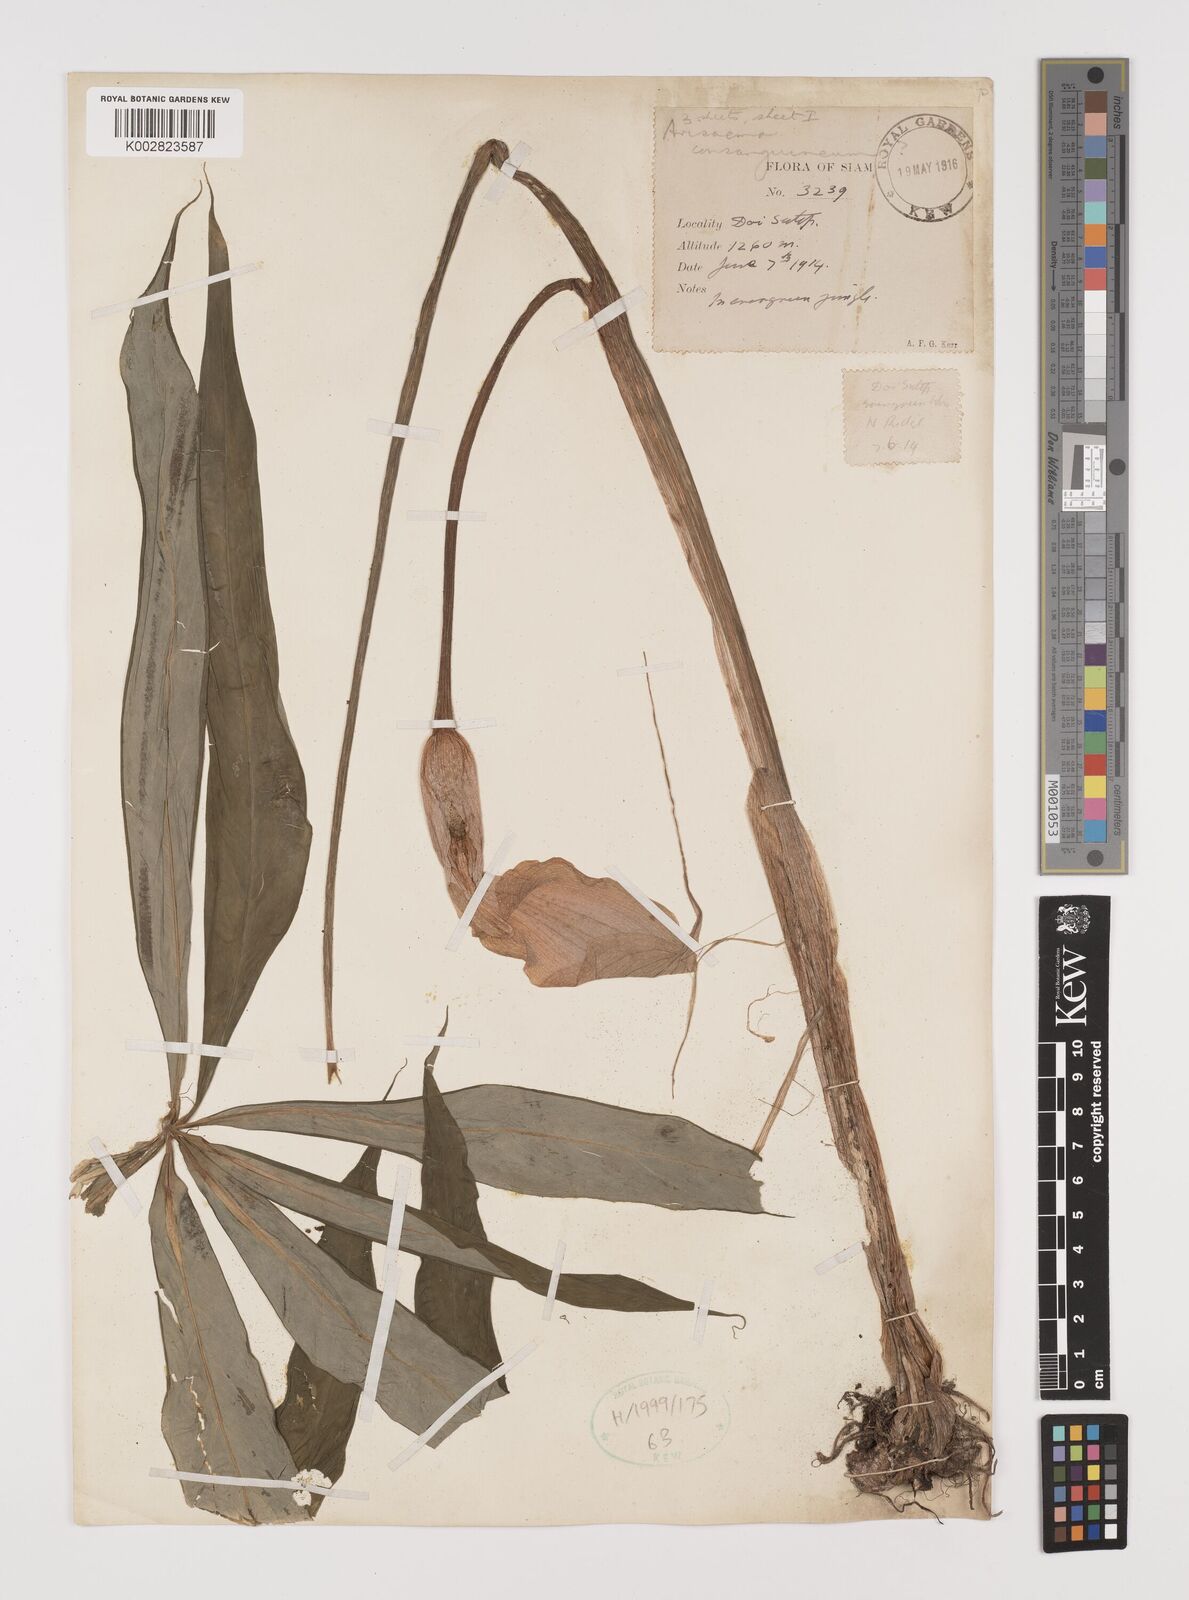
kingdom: Plantae
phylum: Tracheophyta
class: Liliopsida
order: Alismatales
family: Araceae
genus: Arisaema
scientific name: Arisaema consanguineum
